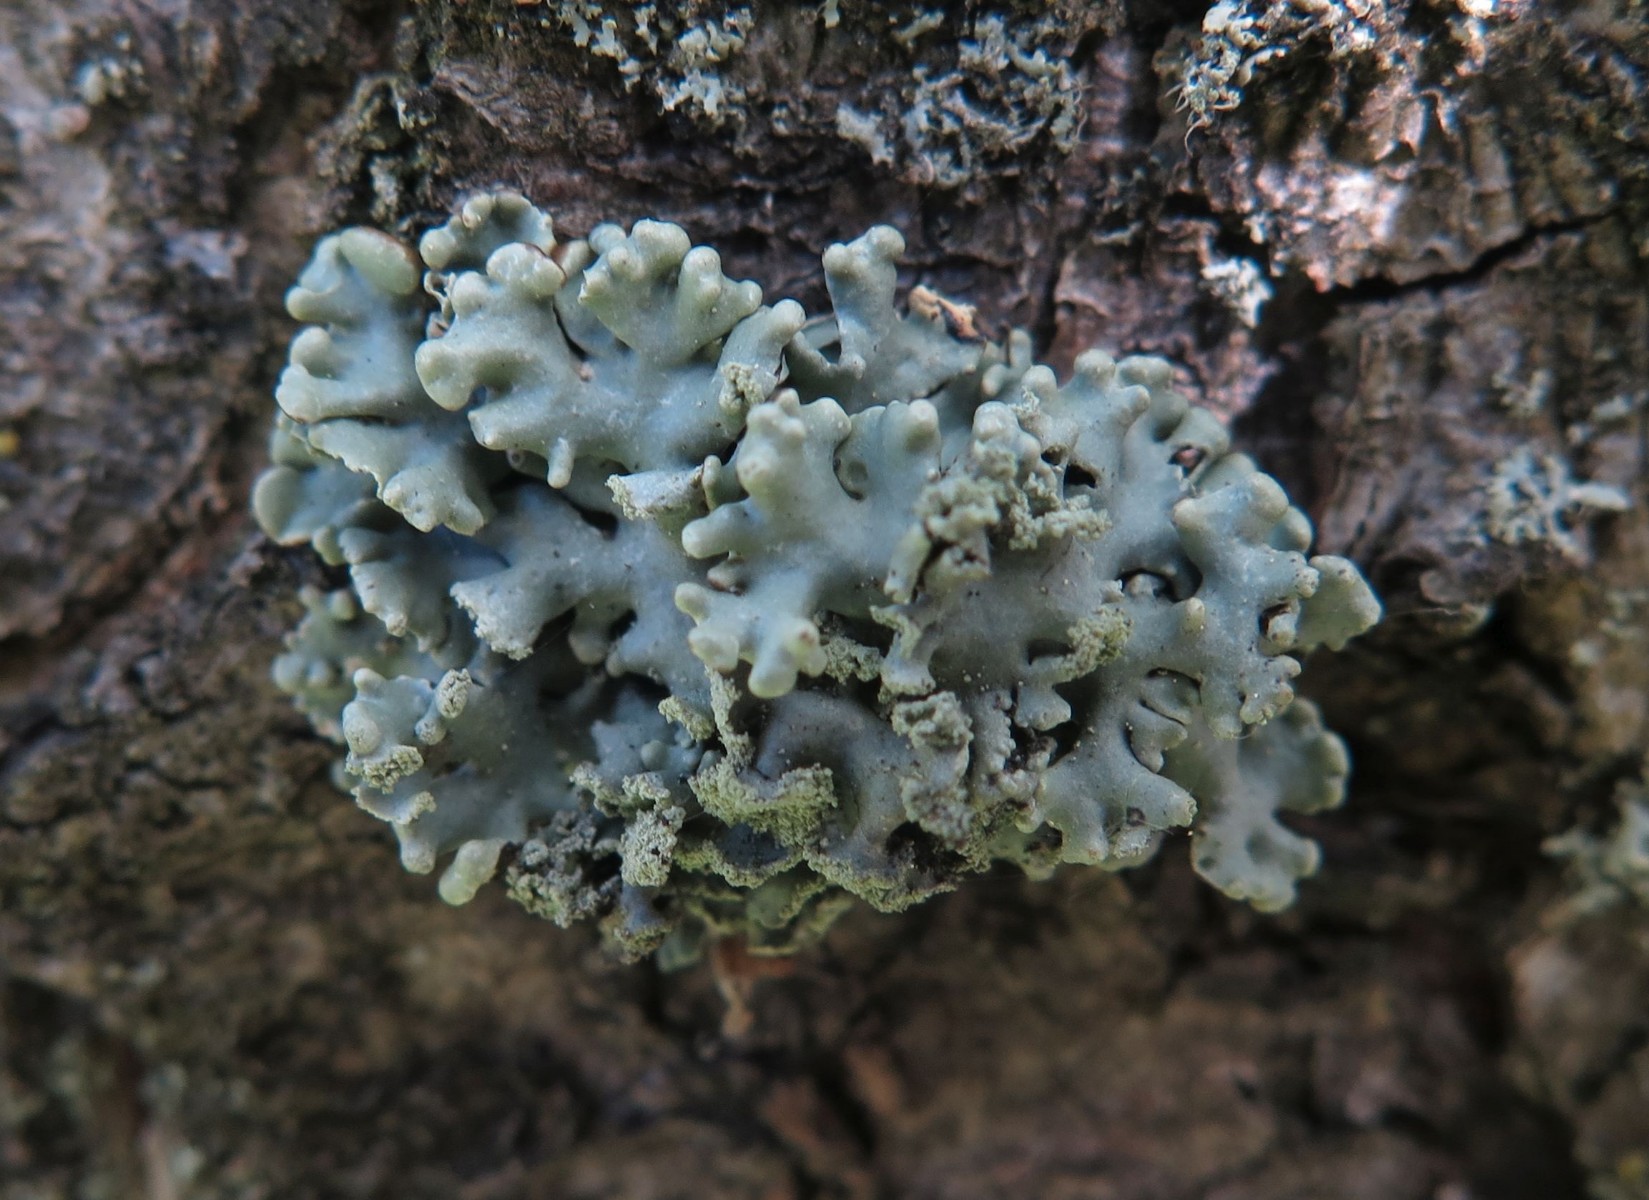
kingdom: Fungi
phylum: Ascomycota
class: Lecanoromycetes
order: Lecanorales
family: Parmeliaceae
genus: Hypogymnia
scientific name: Hypogymnia physodes
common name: almindelig kvistlav
